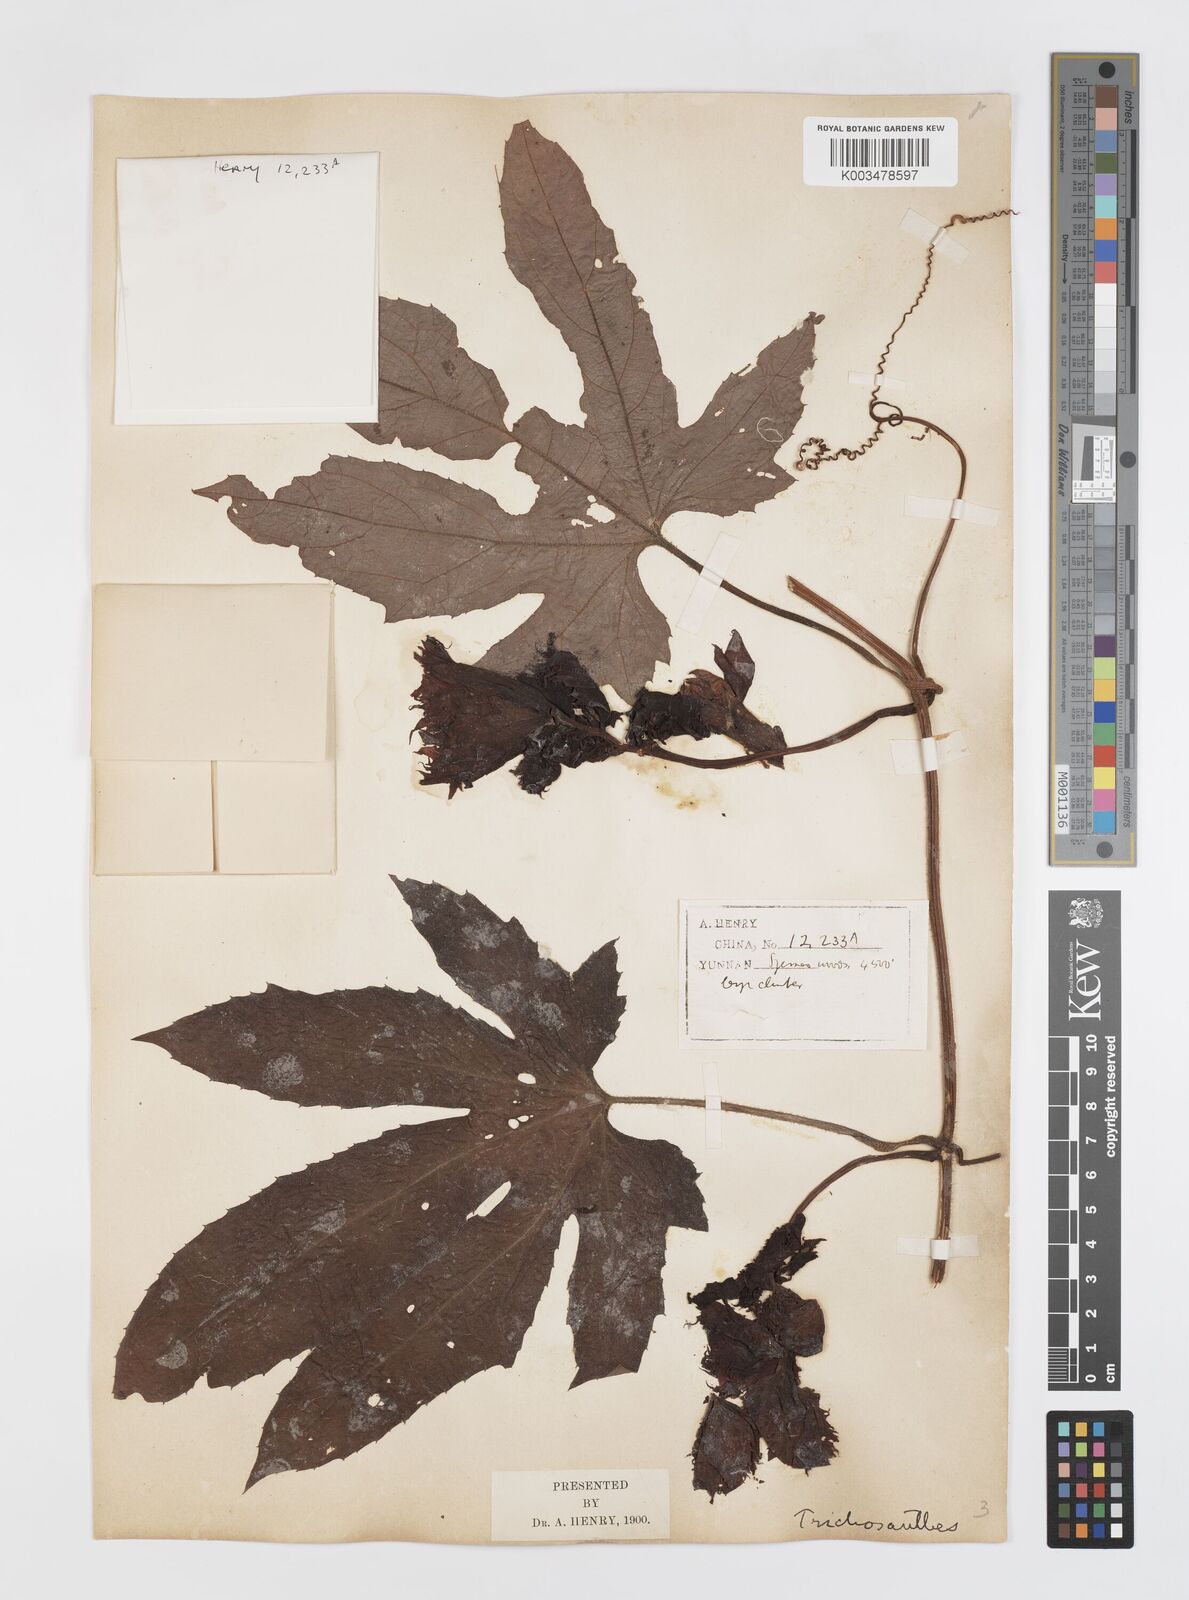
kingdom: Plantae
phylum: Tracheophyta
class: Magnoliopsida
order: Cucurbitales
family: Cucurbitaceae
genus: Trichosanthes
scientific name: Trichosanthes rubriflos
